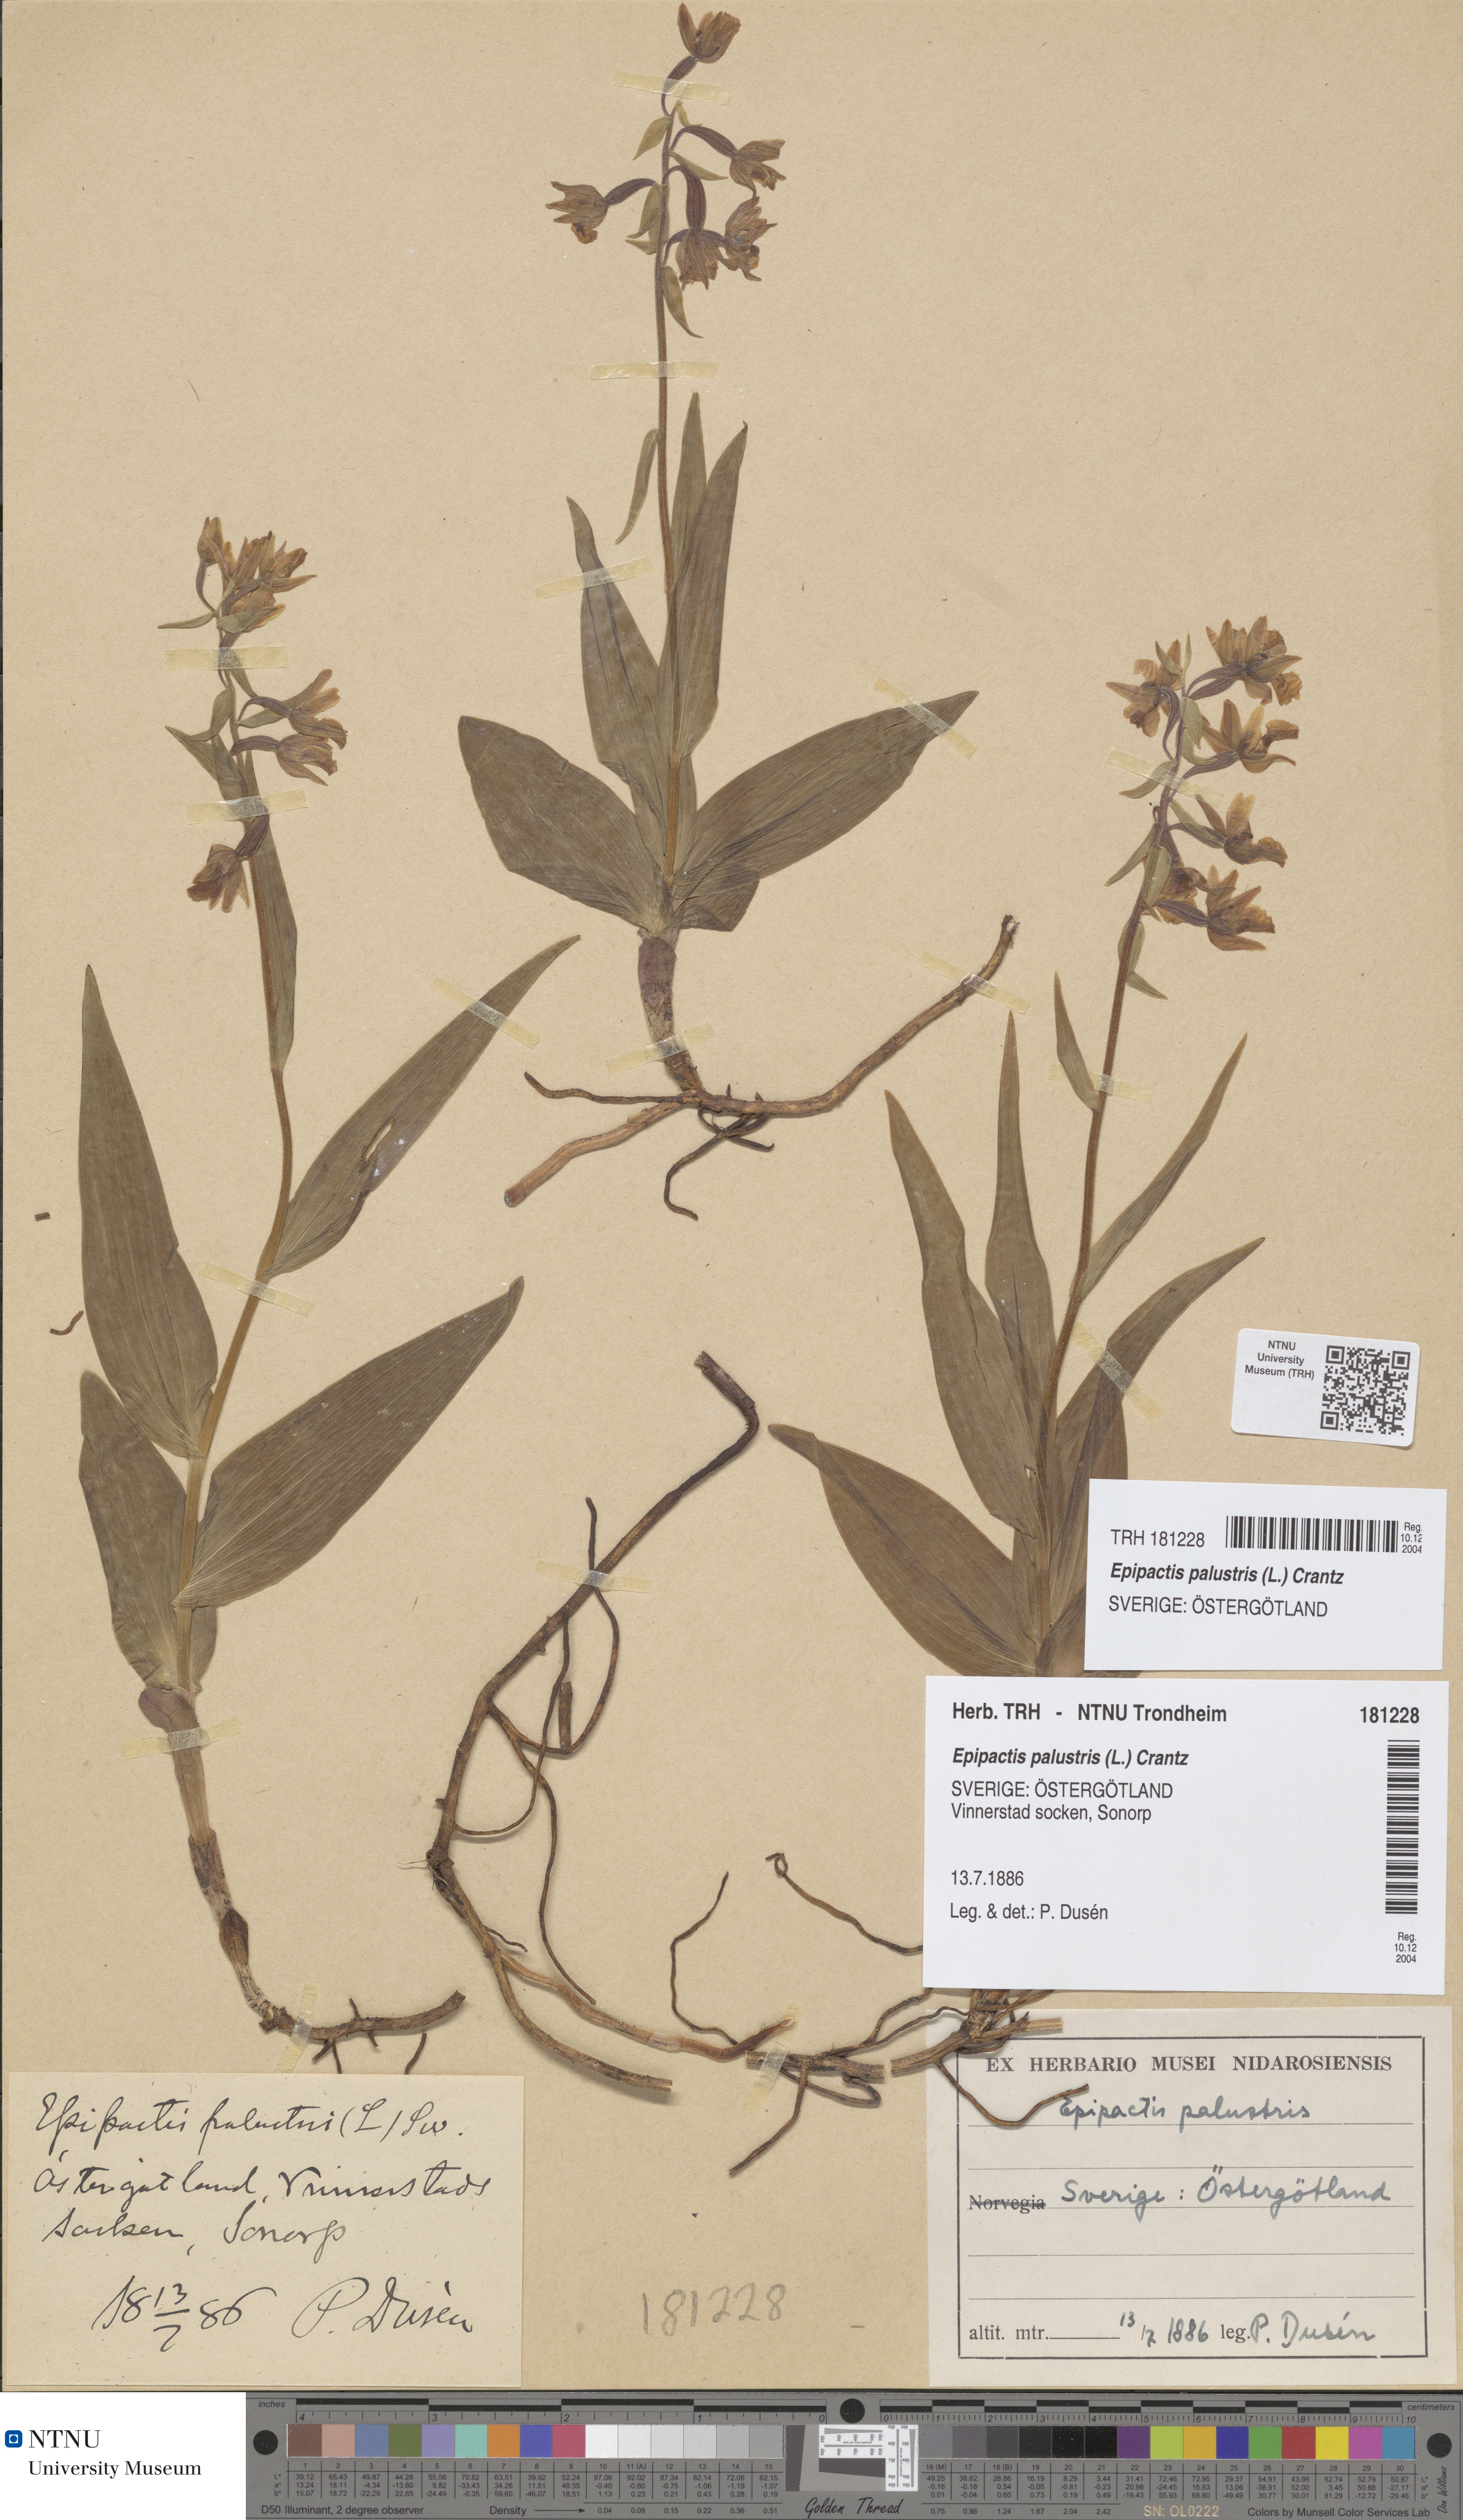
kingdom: Plantae
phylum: Tracheophyta
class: Liliopsida
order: Asparagales
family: Orchidaceae
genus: Epipactis
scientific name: Epipactis palustris
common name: Marsh helleborine
